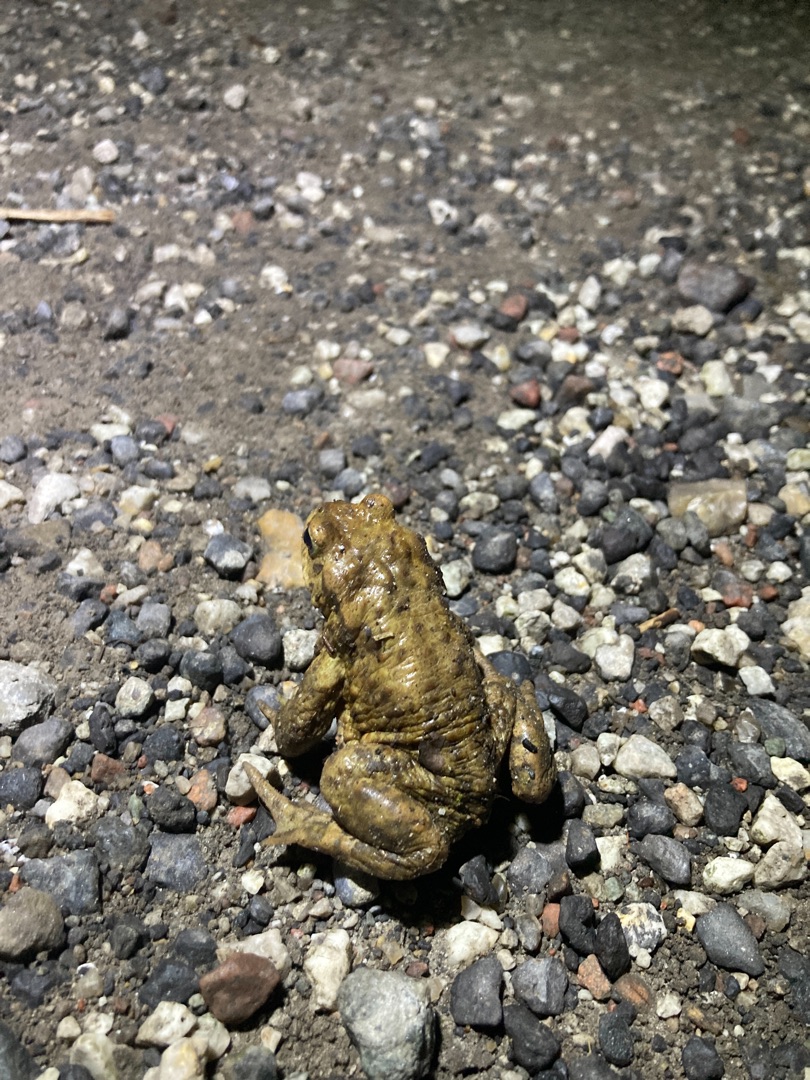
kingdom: Animalia
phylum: Chordata
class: Amphibia
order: Anura
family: Bufonidae
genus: Bufo
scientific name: Bufo bufo
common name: Skrubtudse
